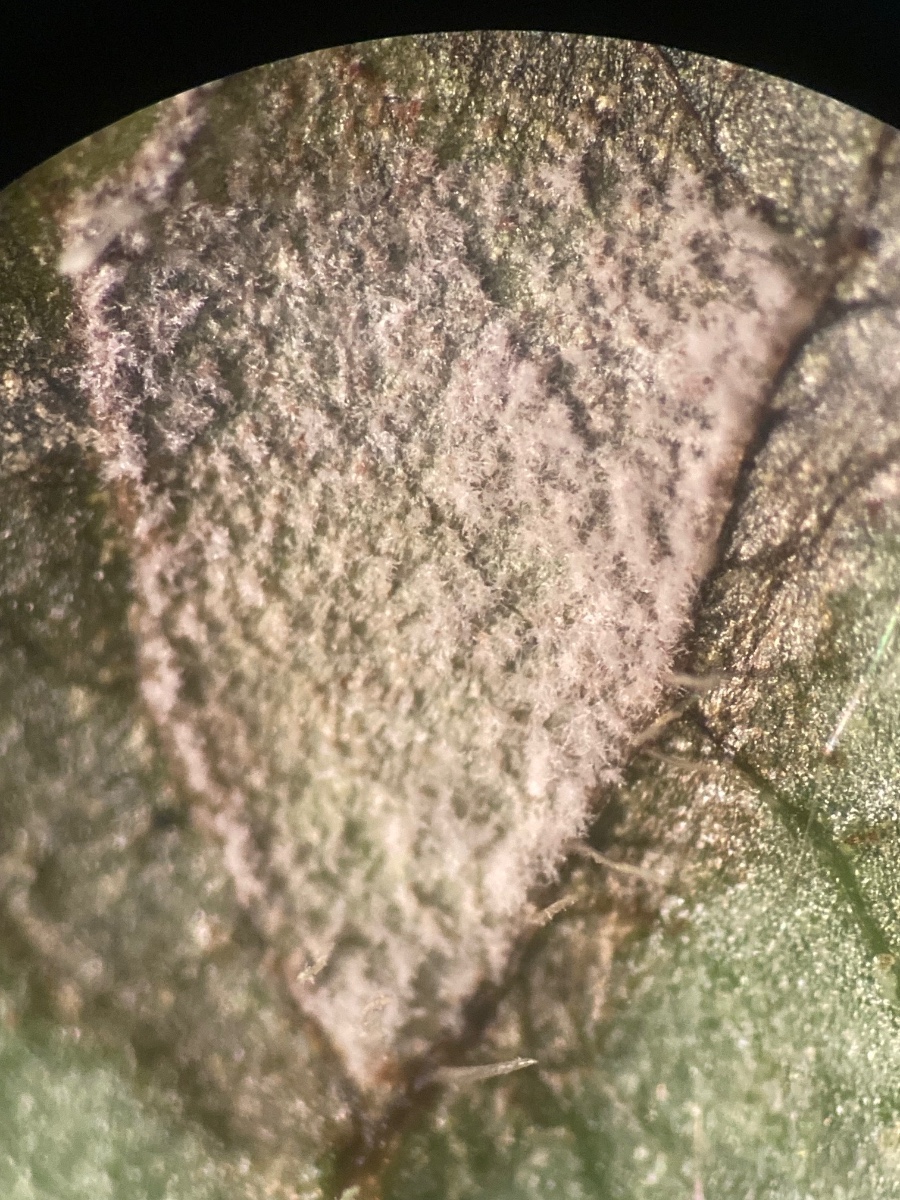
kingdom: Fungi
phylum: Ascomycota
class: Dothideomycetes
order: Mycosphaerellales
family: Mycosphaerellaceae
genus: Ramularia
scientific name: Ramularia sambucina
